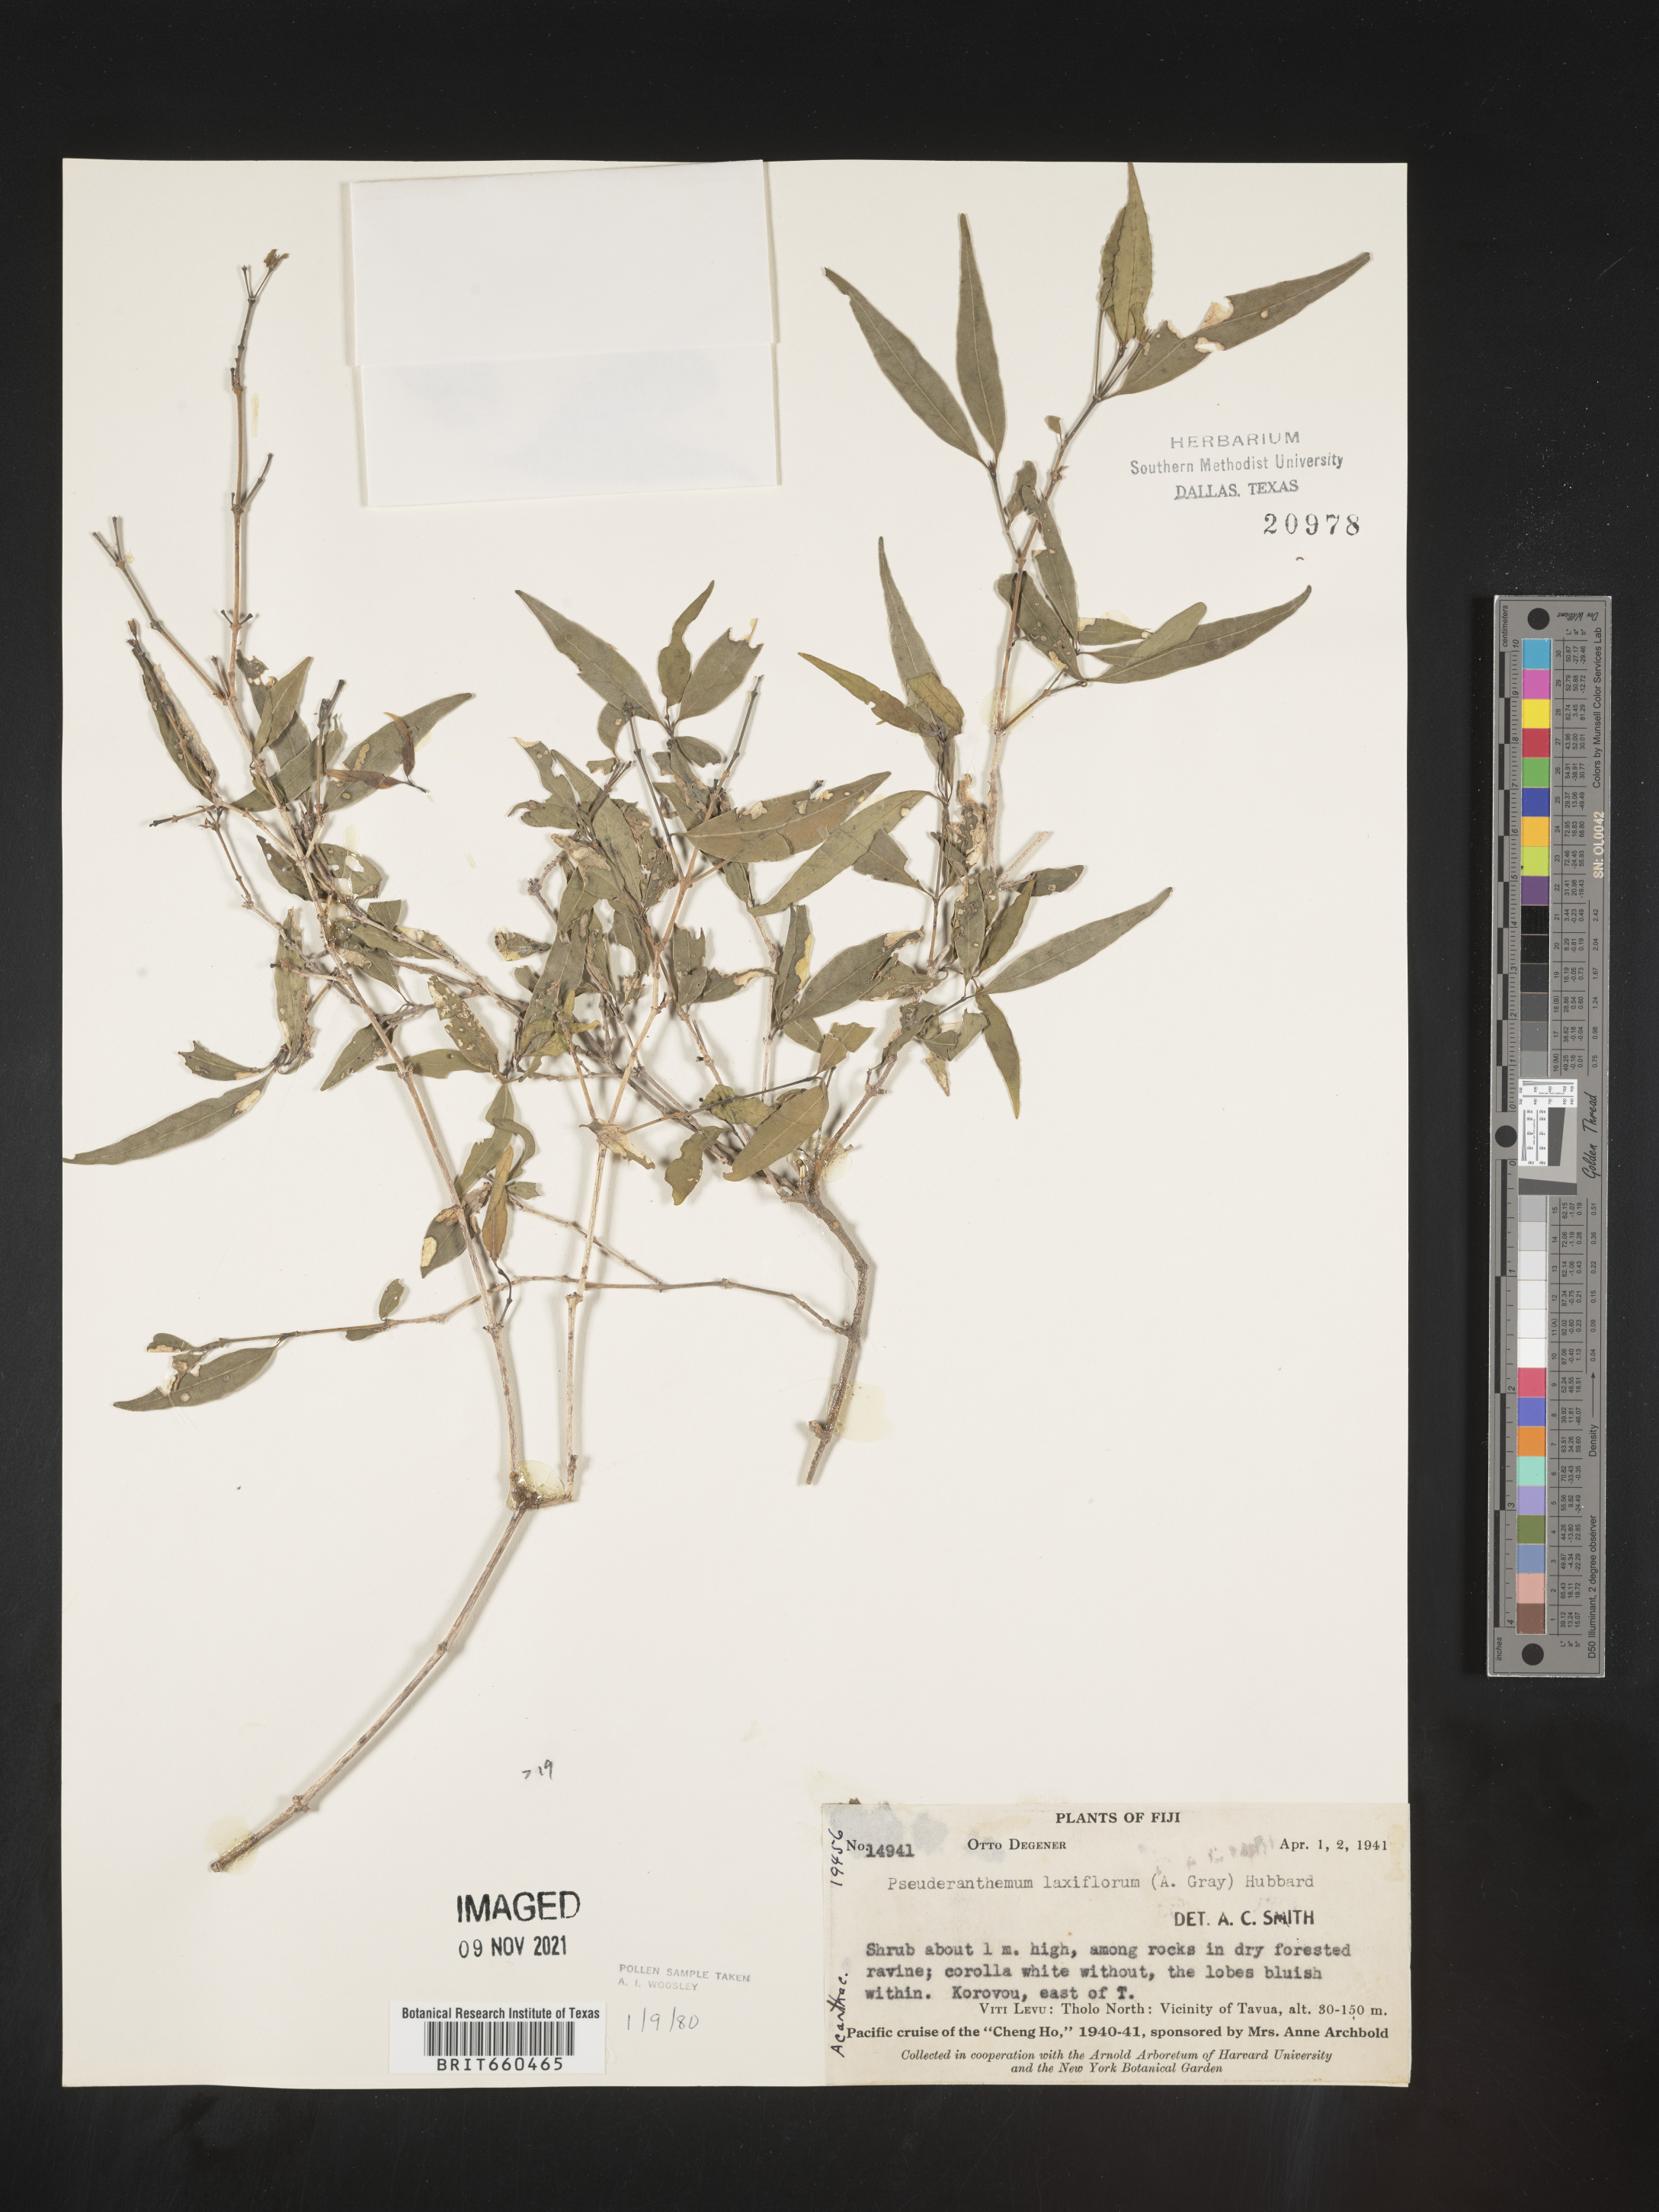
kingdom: Plantae
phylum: Tracheophyta
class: Magnoliopsida
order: Lamiales
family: Acanthaceae
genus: Pseuderanthemum
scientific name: Pseuderanthemum
